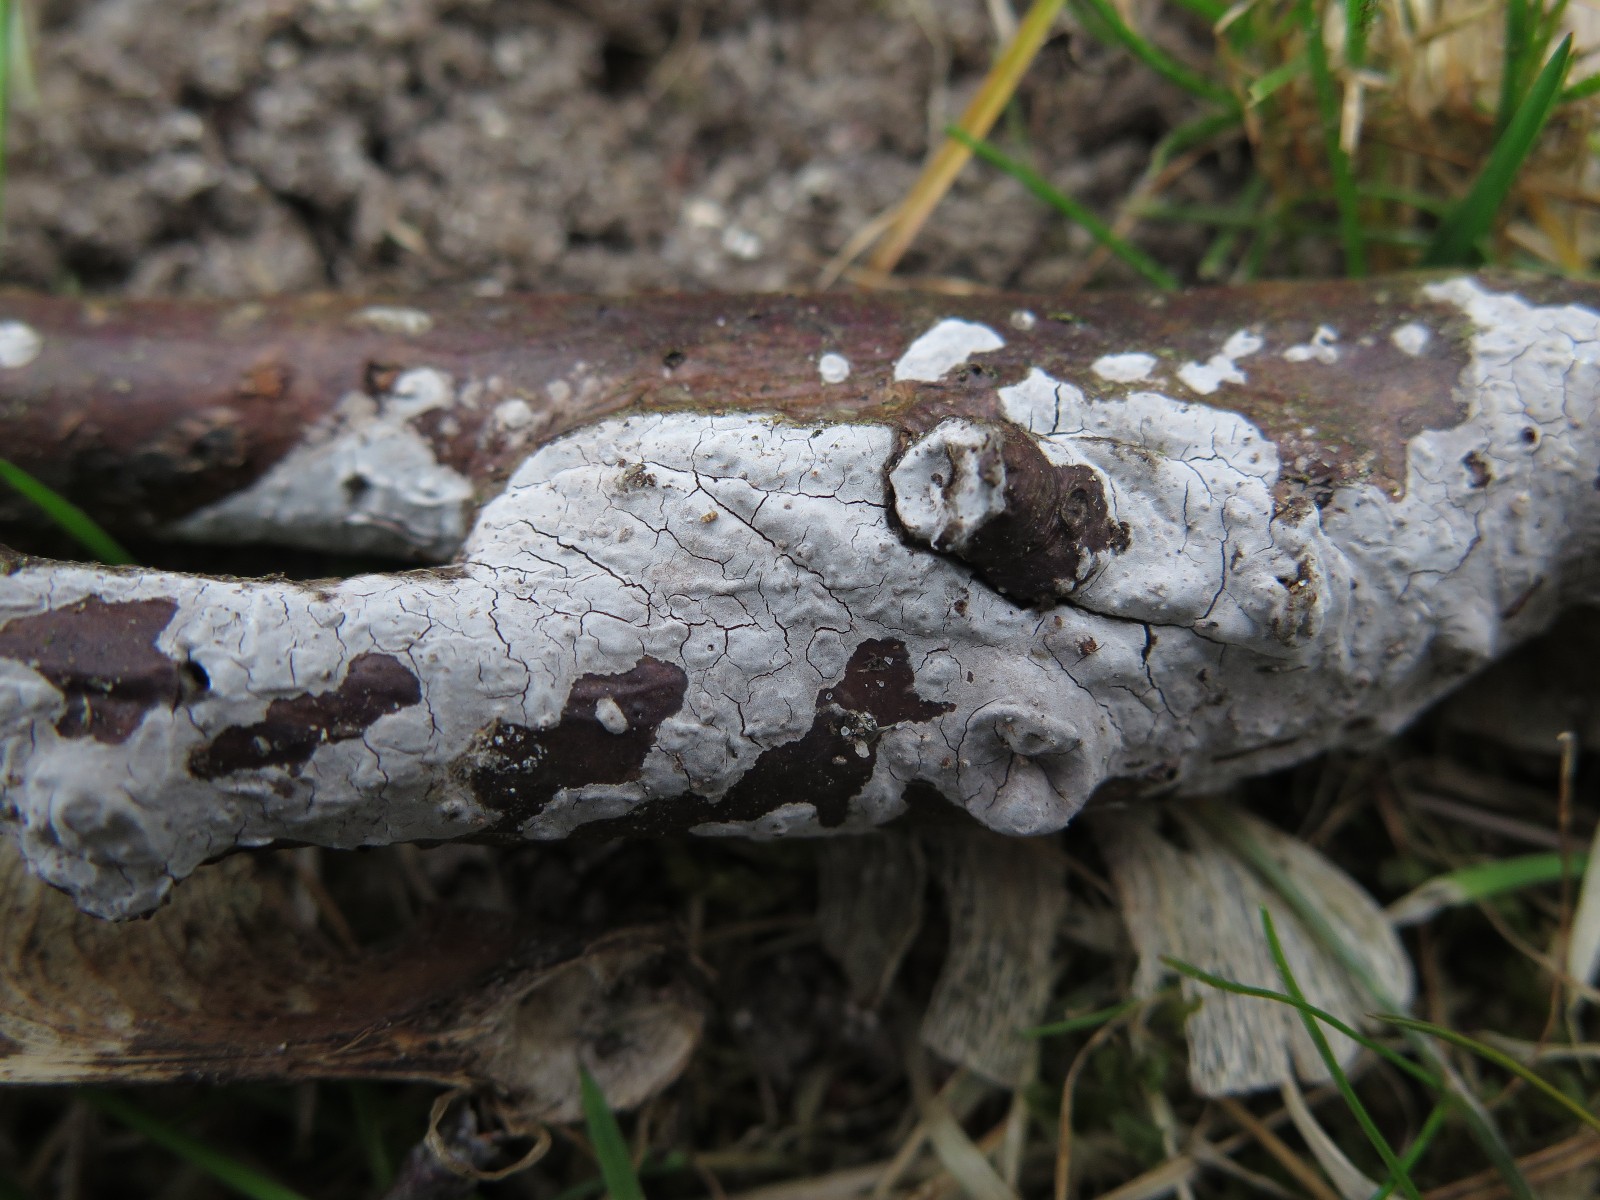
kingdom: Fungi
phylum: Basidiomycota
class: Agaricomycetes
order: Russulales
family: Peniophoraceae
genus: Peniophora
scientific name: Peniophora
